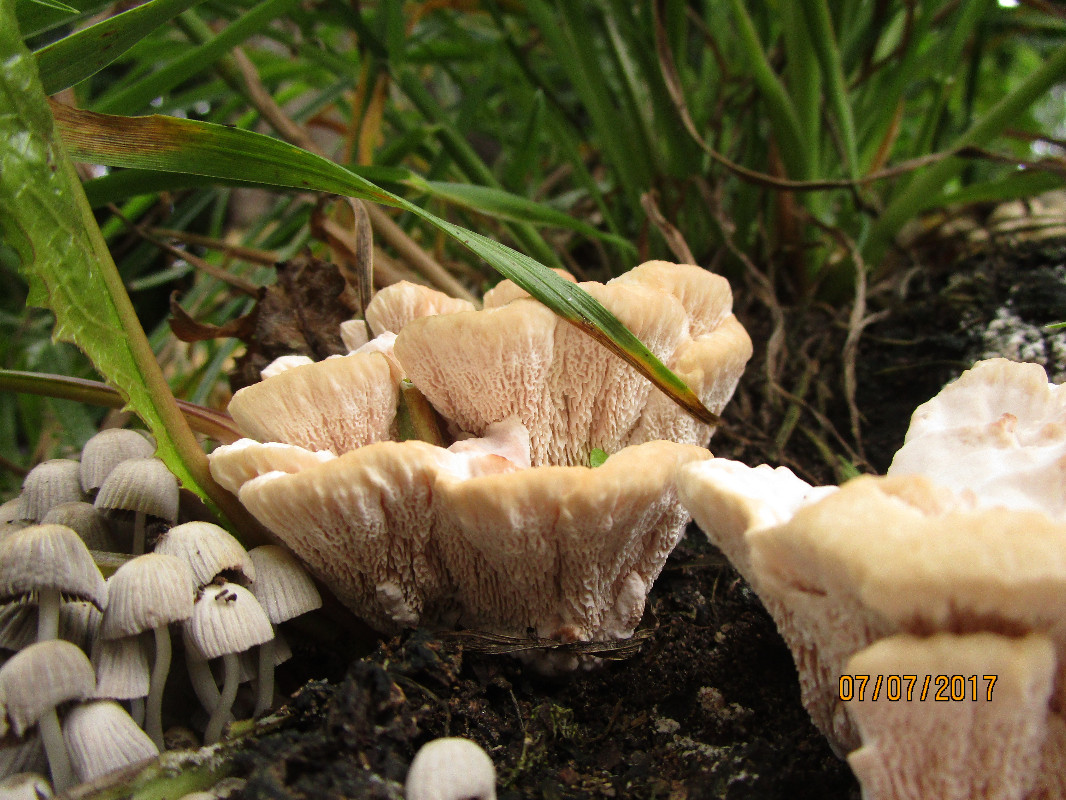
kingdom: Fungi
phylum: Basidiomycota
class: Agaricomycetes
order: Polyporales
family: Podoscyphaceae
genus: Abortiporus
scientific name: Abortiporus biennis
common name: rødmende pjalteporesvamp
